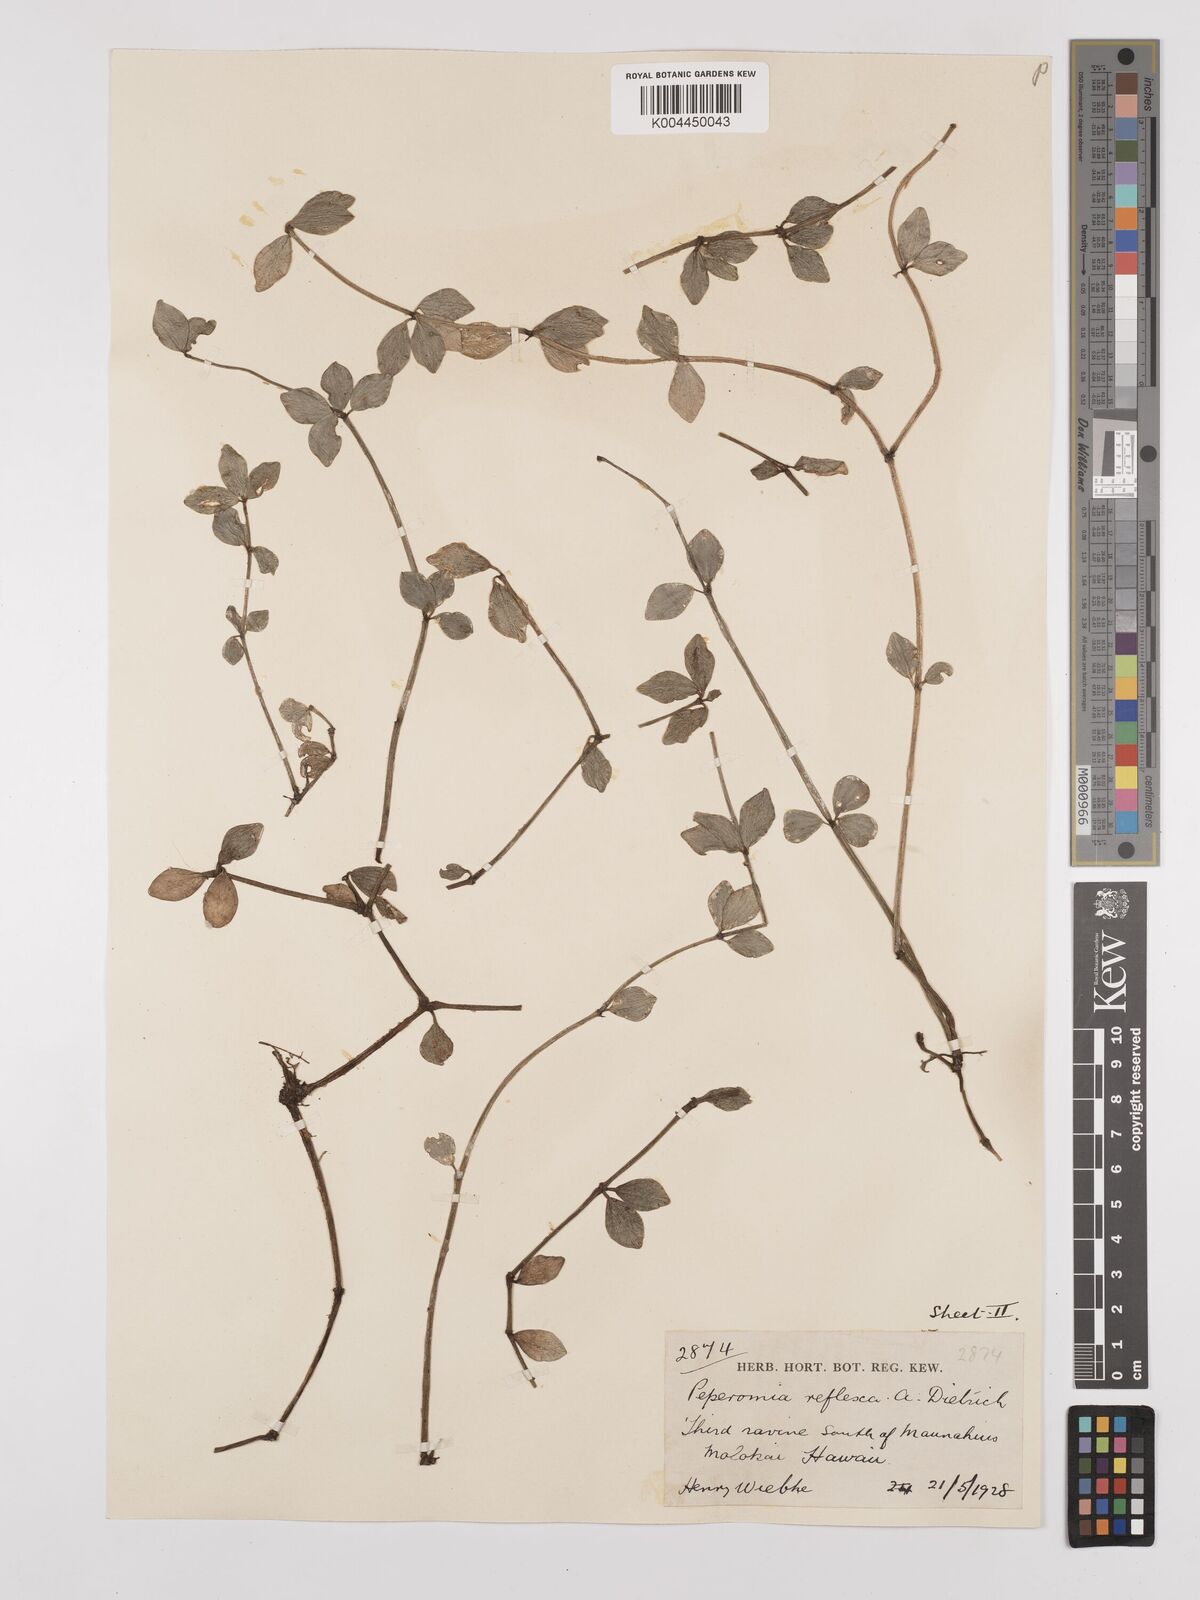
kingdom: Plantae
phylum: Tracheophyta
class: Magnoliopsida
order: Piperales
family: Piperaceae
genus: Peperomia
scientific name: Peperomia tetraphylla
